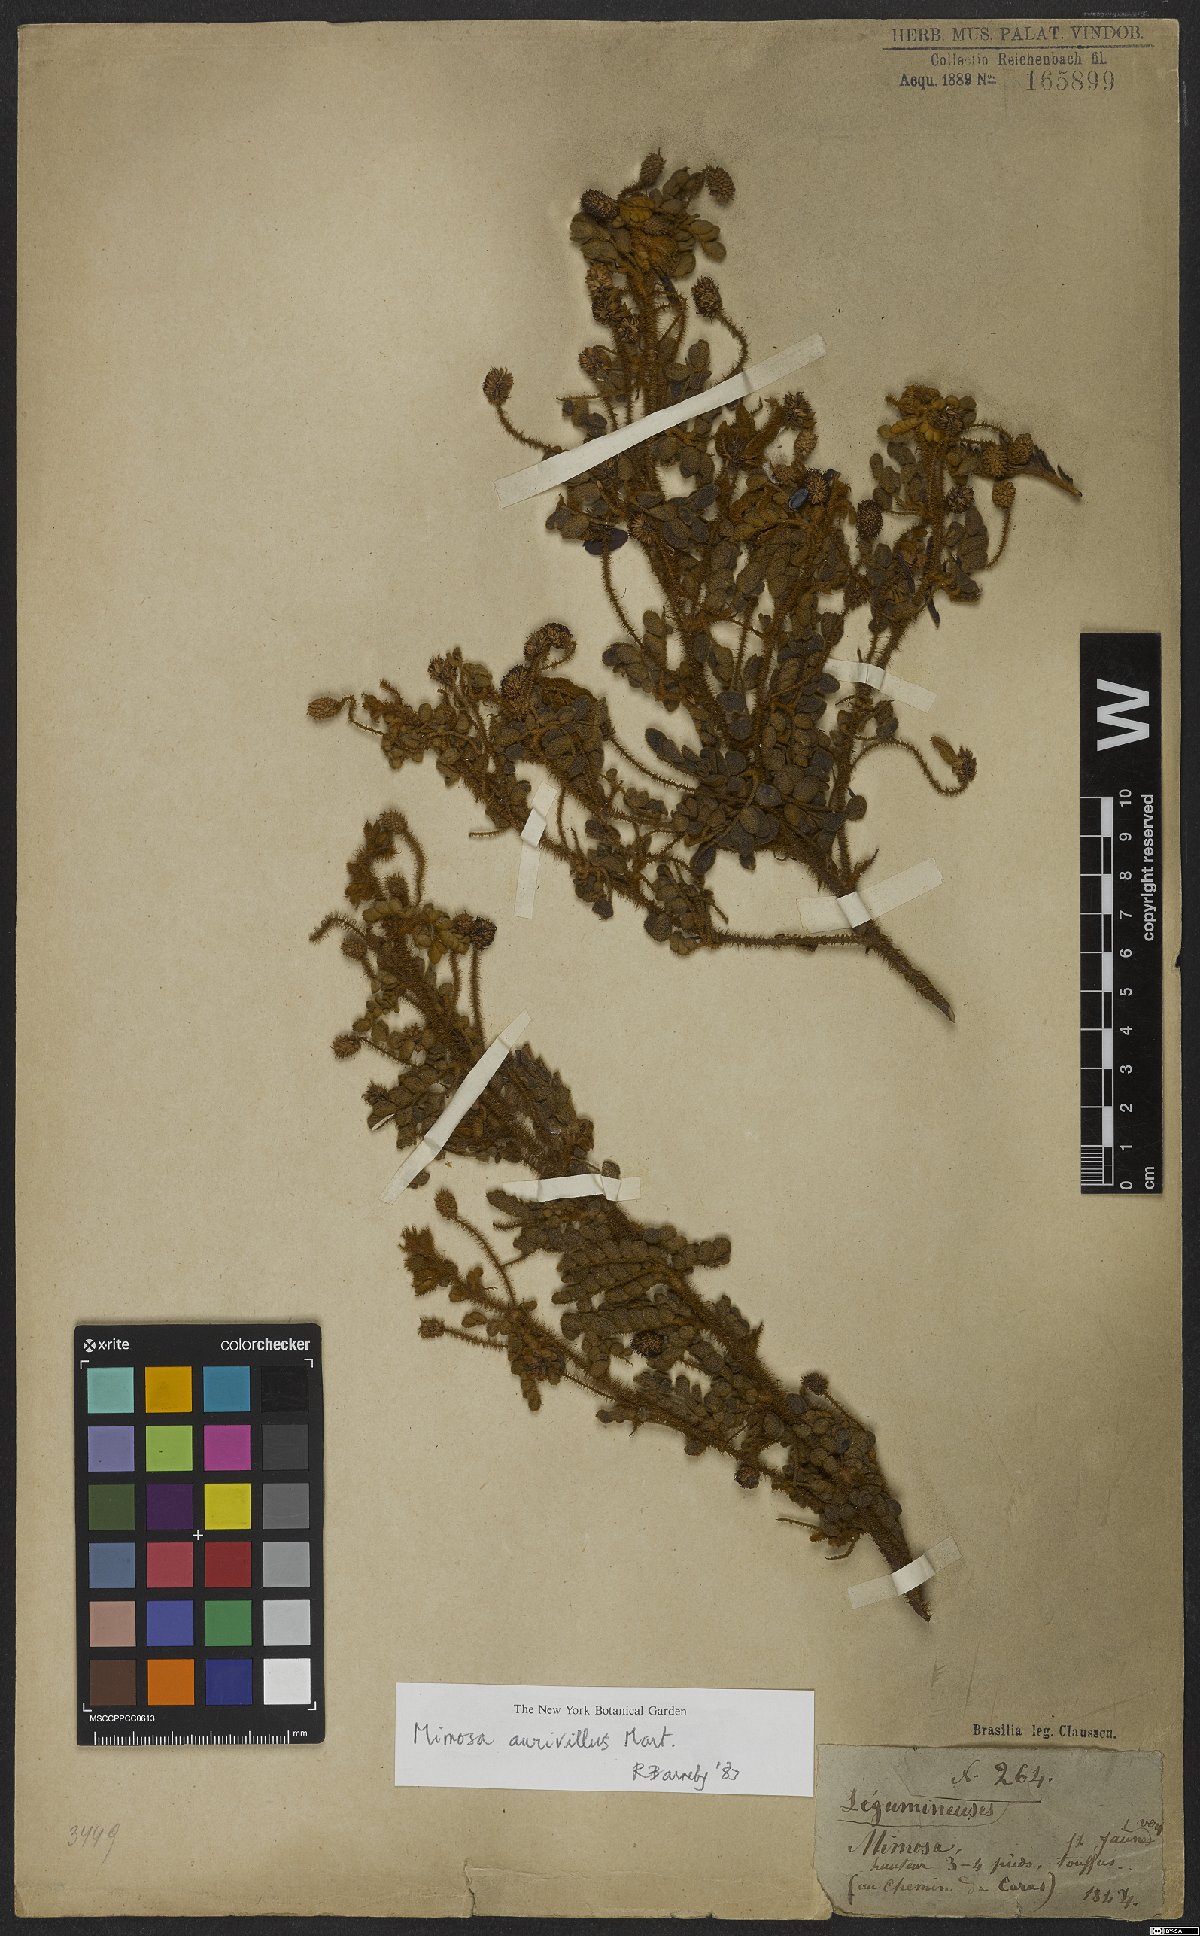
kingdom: Plantae
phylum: Tracheophyta
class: Magnoliopsida
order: Fabales
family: Fabaceae
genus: Mimosa
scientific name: Mimosa aurivillus
